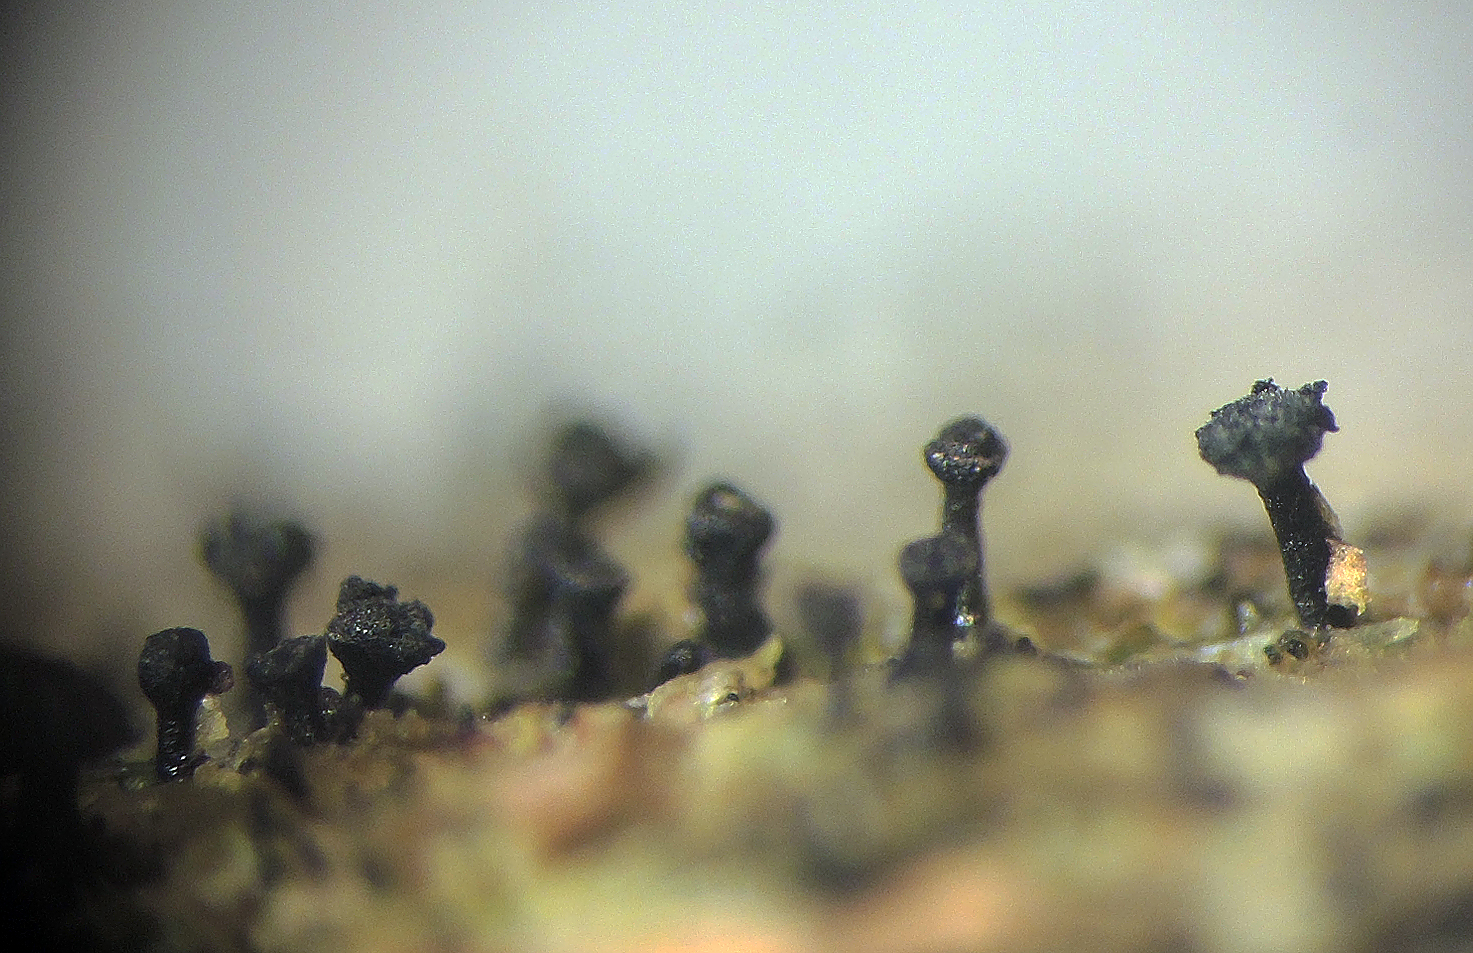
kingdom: Fungi
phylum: Ascomycota
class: Lecanoromycetes
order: Caliciales
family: Caliciaceae
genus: Calicium
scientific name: Calicium glaucellum
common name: grågrøn nålelav
